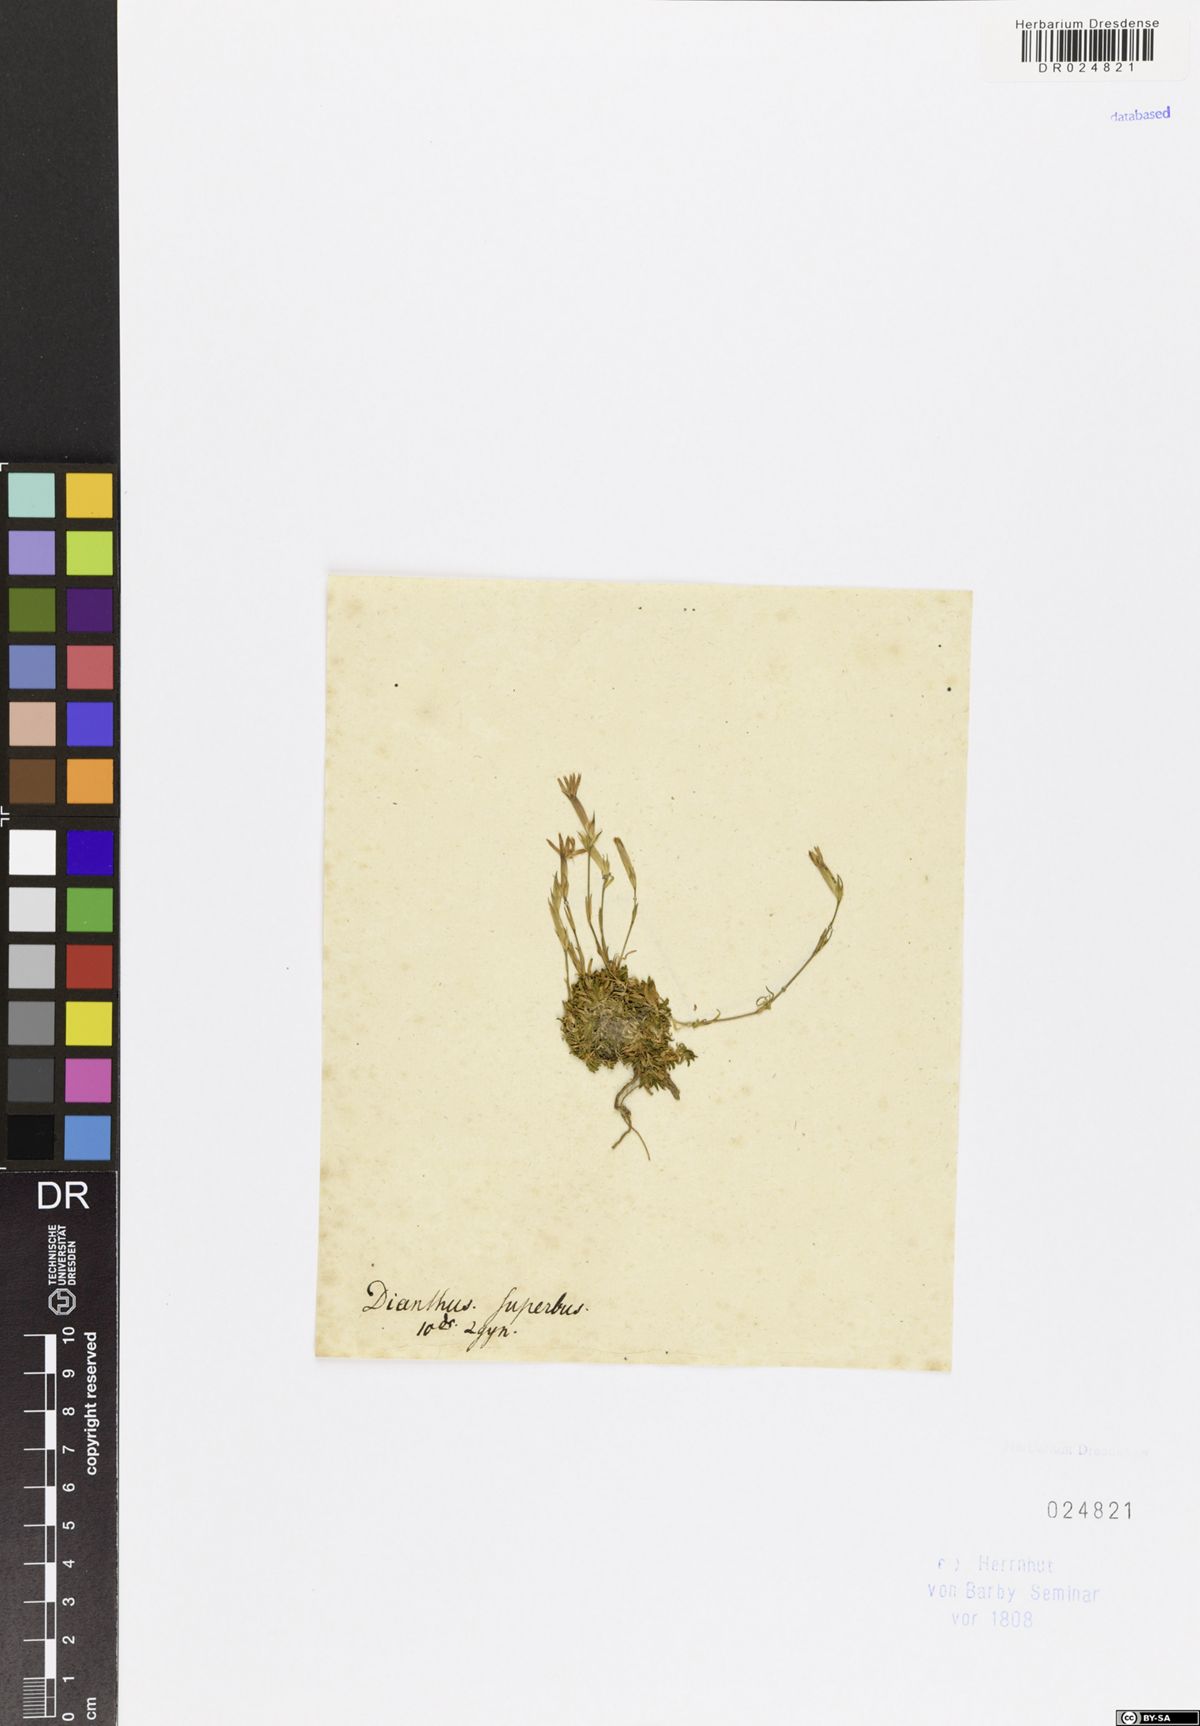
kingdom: Plantae
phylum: Tracheophyta
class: Magnoliopsida
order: Caryophyllales
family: Caryophyllaceae
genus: Dianthus
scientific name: Dianthus superbus
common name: Fringed pink
